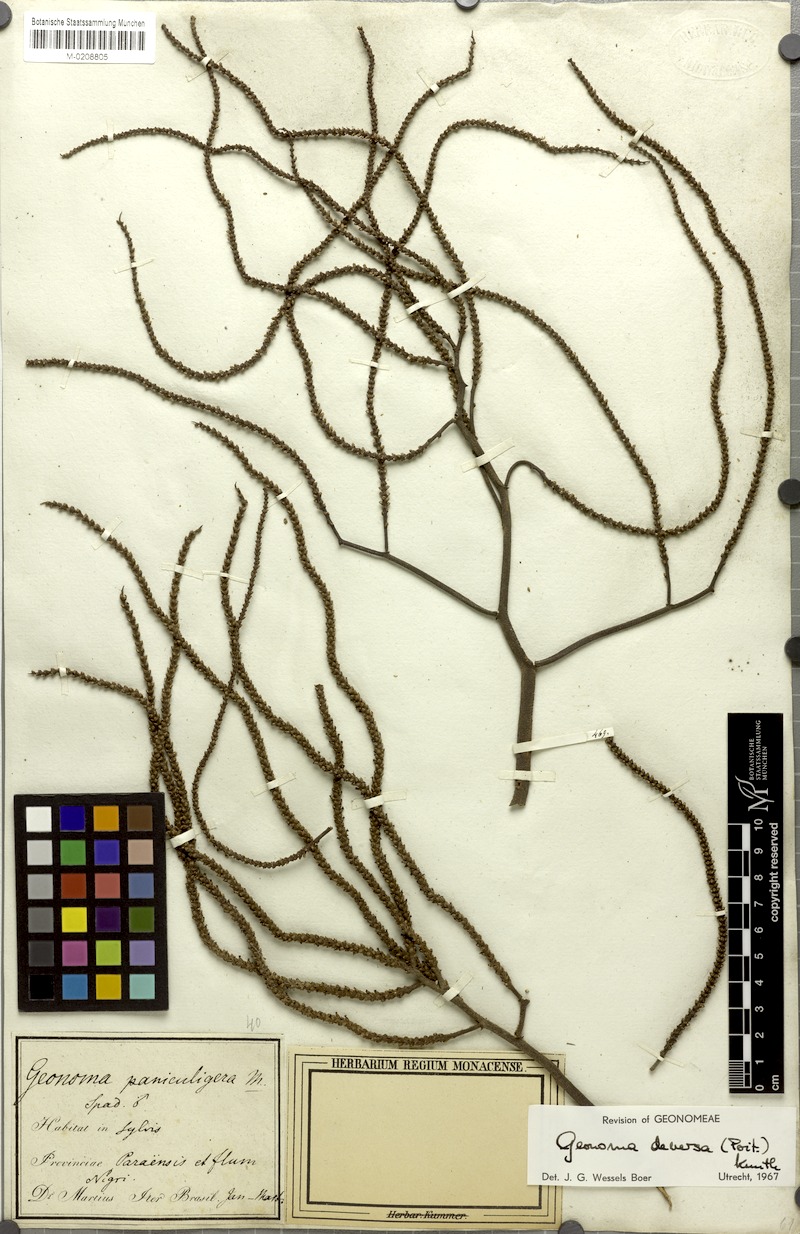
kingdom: Plantae
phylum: Tracheophyta
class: Liliopsida
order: Arecales
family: Arecaceae
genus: Geonoma
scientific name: Geonoma deversa
